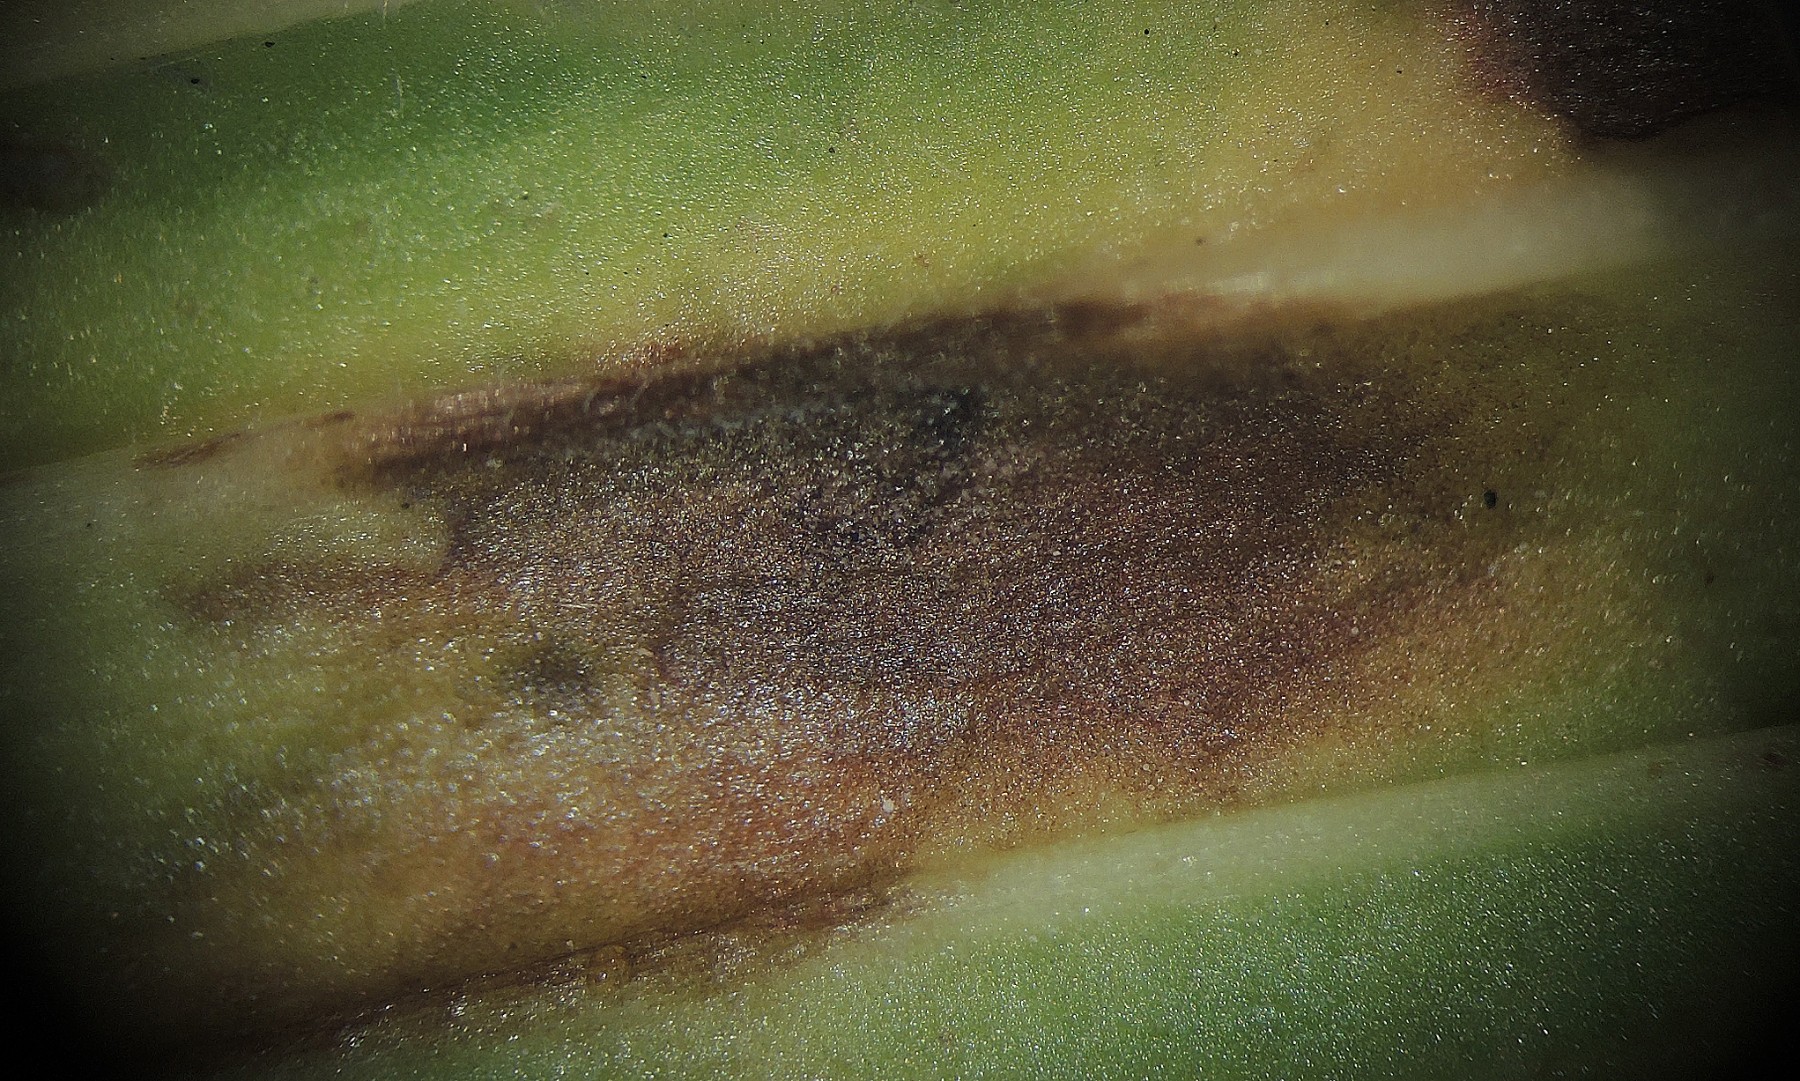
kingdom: Fungi
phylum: Ascomycota
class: Dothideomycetes
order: Mycosphaerellales
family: Mycosphaerellaceae
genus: Ramularia
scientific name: Ramularia rhabdospora
